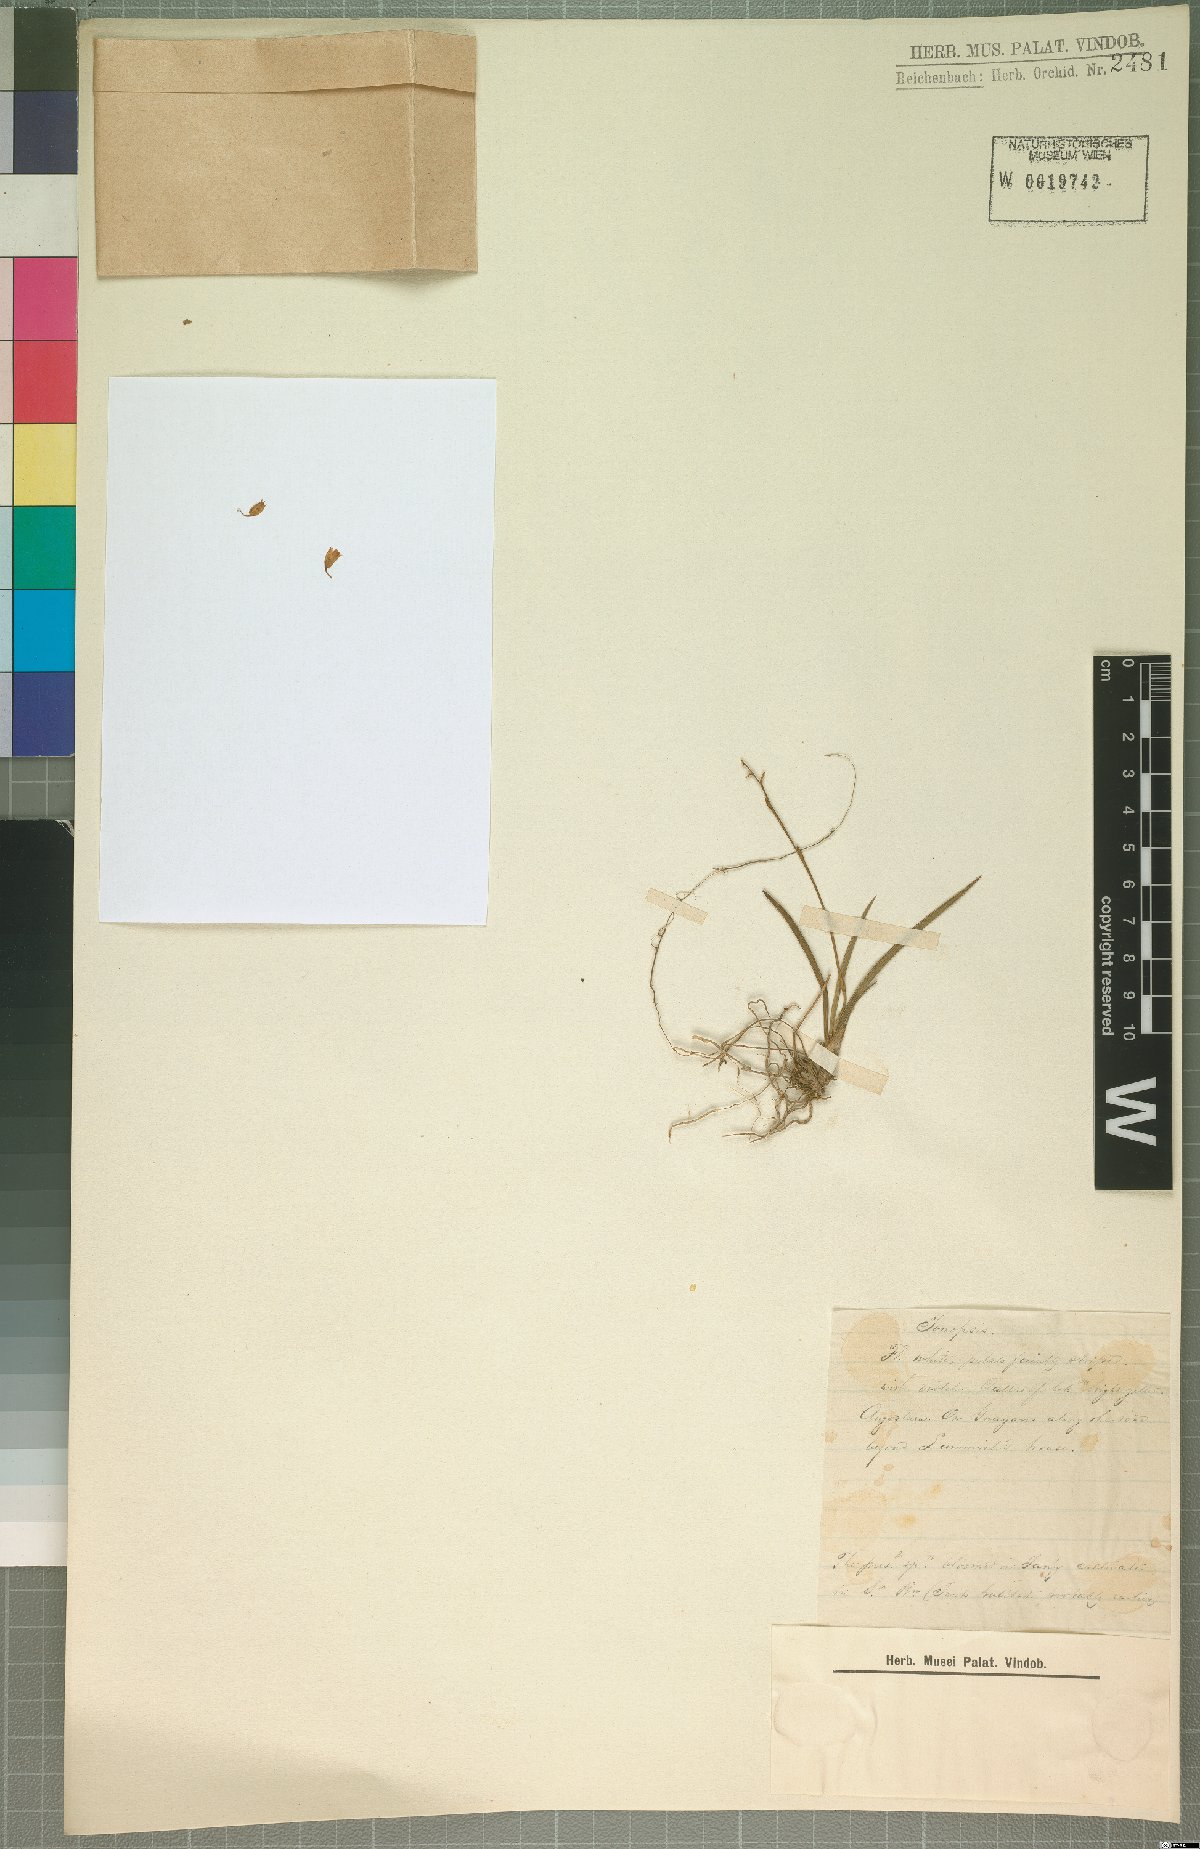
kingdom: Plantae
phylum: Tracheophyta
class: Liliopsida
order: Asparagales
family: Orchidaceae
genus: Ionopsis
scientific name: Ionopsis
